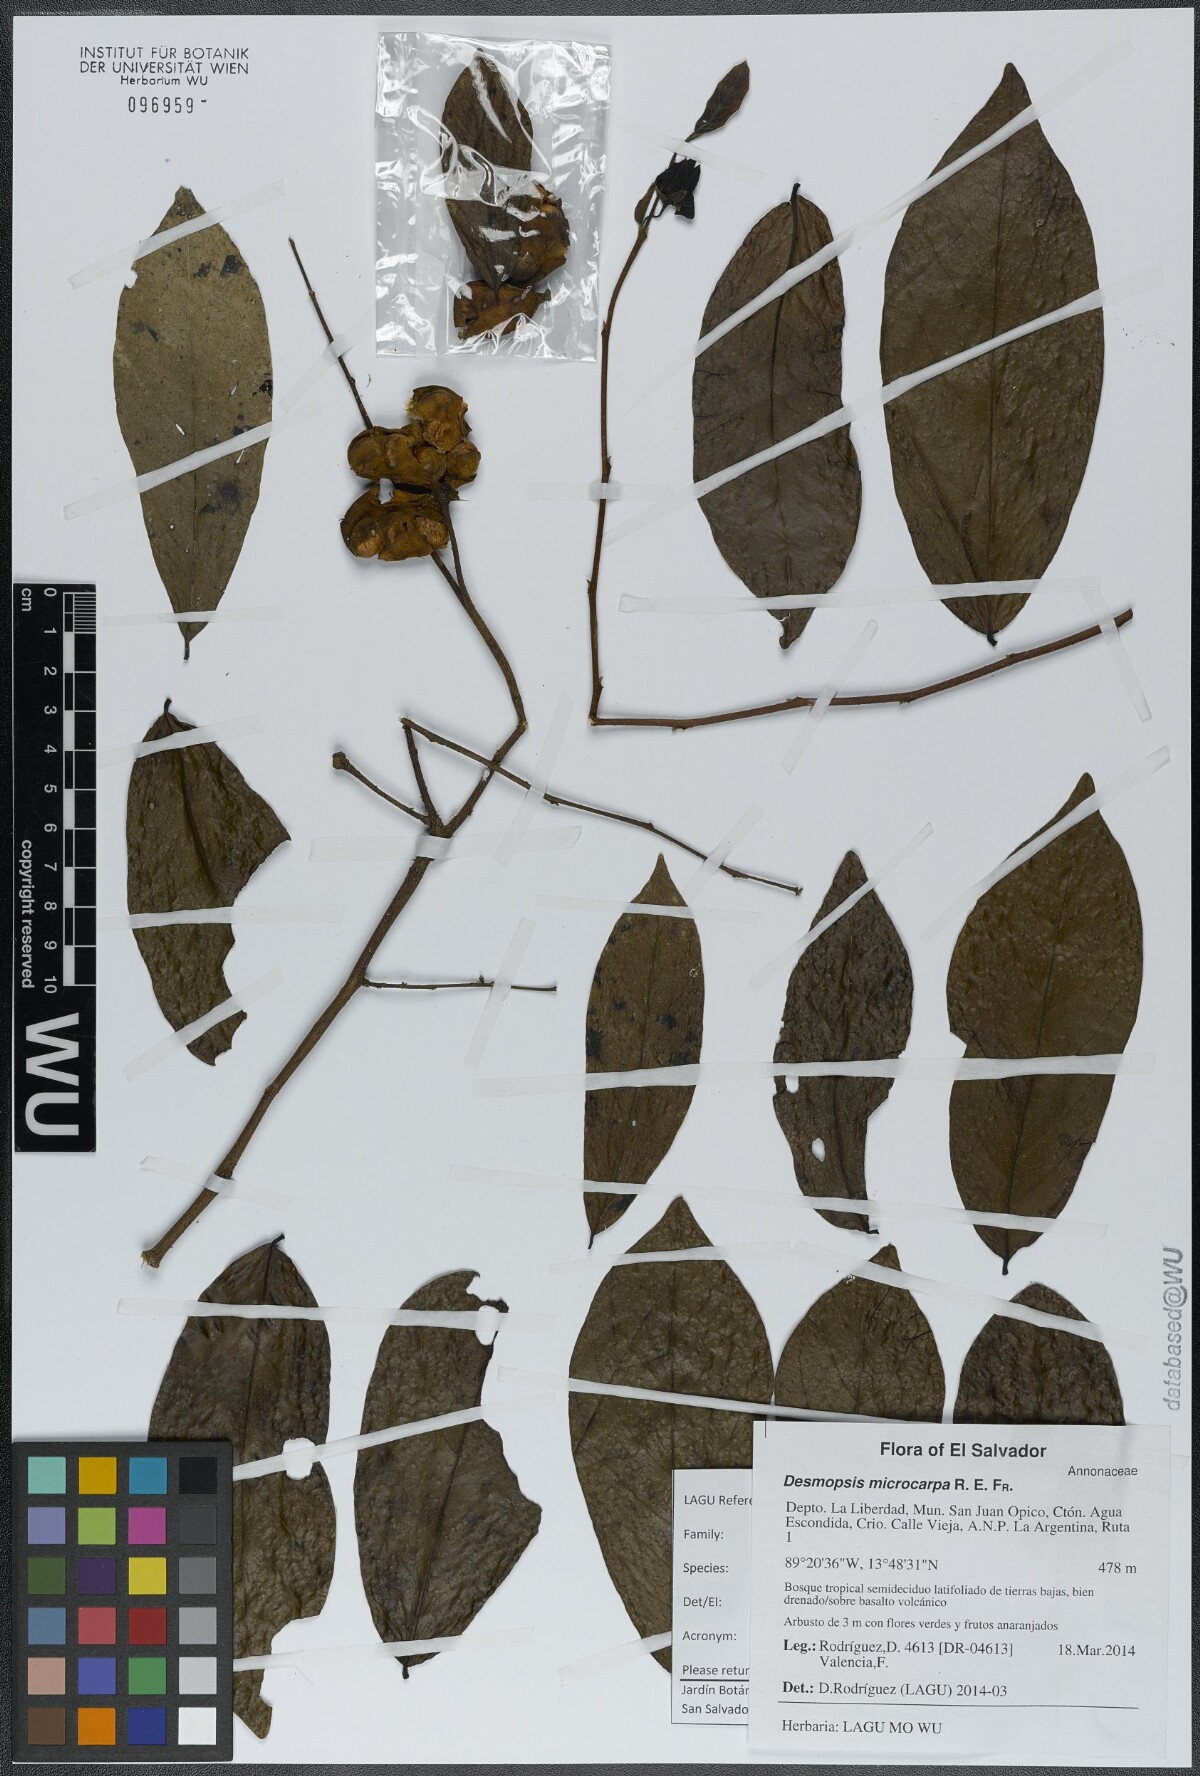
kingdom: Plantae
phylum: Tracheophyta
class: Magnoliopsida
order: Magnoliales
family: Annonaceae
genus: Desmopsis
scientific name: Desmopsis microcarpa
